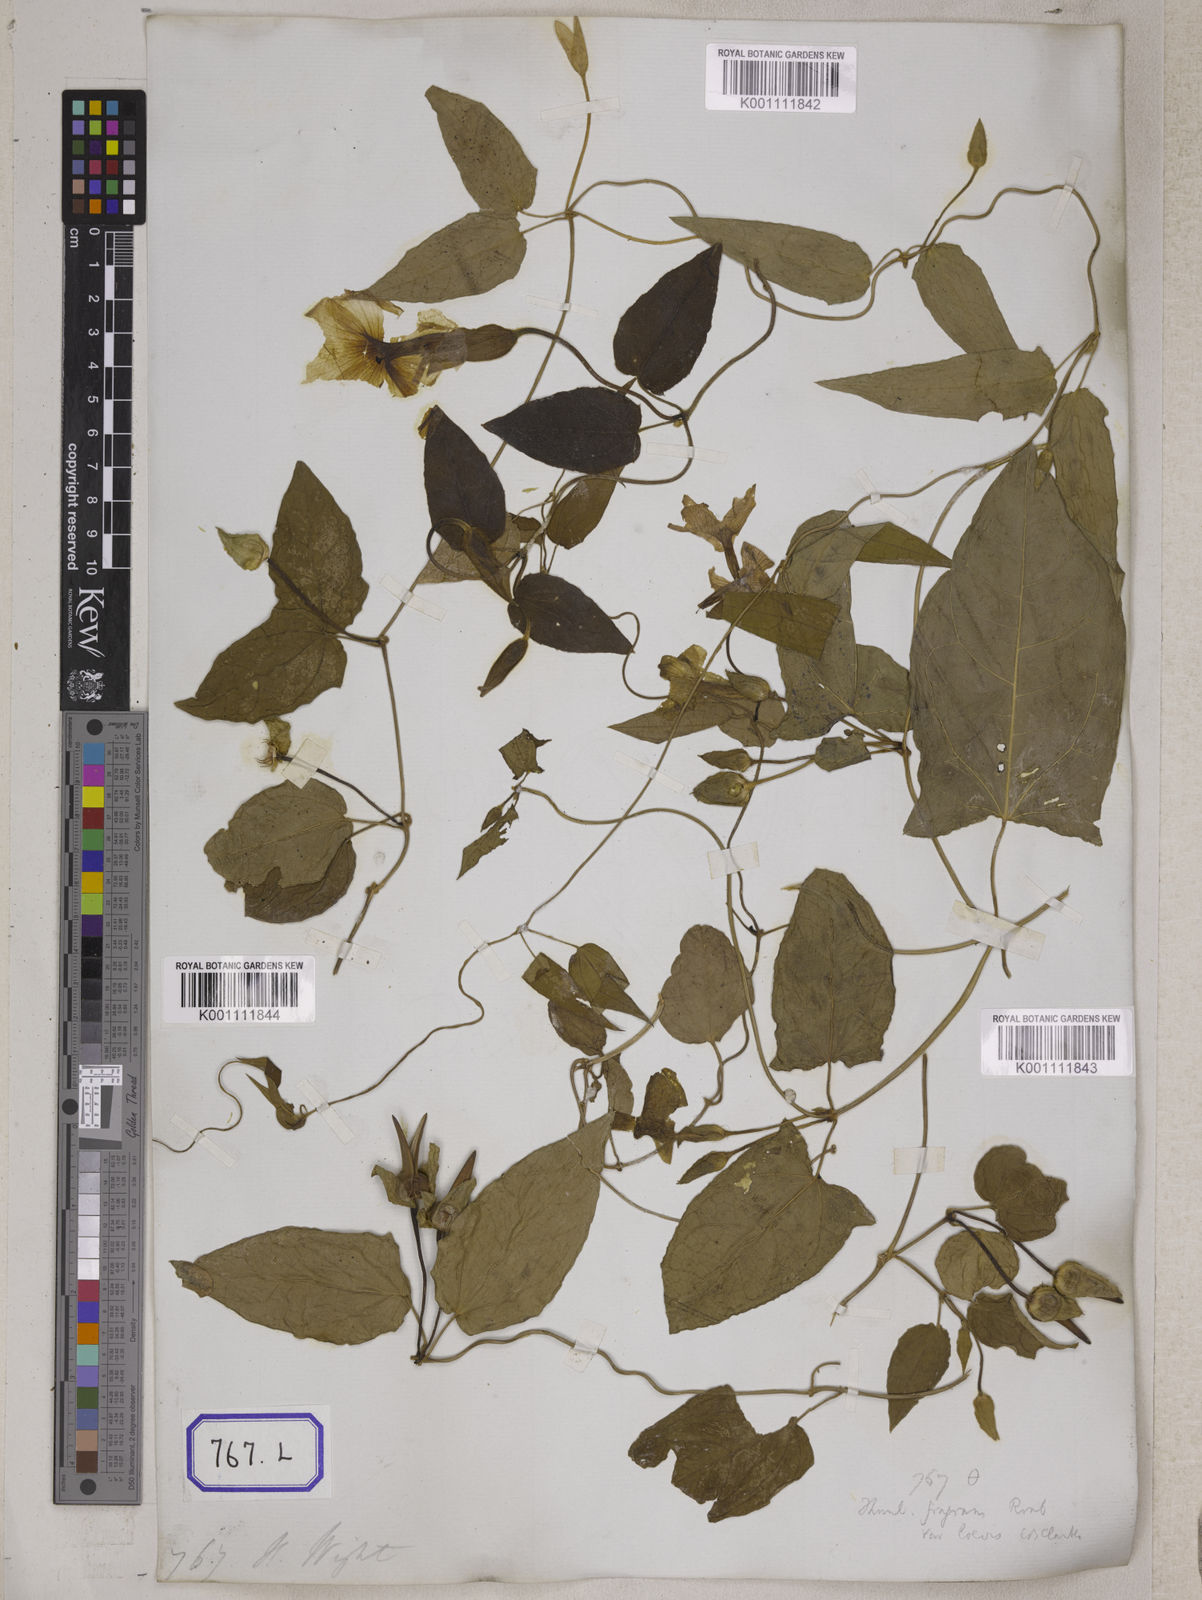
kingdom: Plantae
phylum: Tracheophyta
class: Magnoliopsida
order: Lamiales
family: Acanthaceae
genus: Thunbergia
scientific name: Thunbergia fragrans
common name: Whitelady
